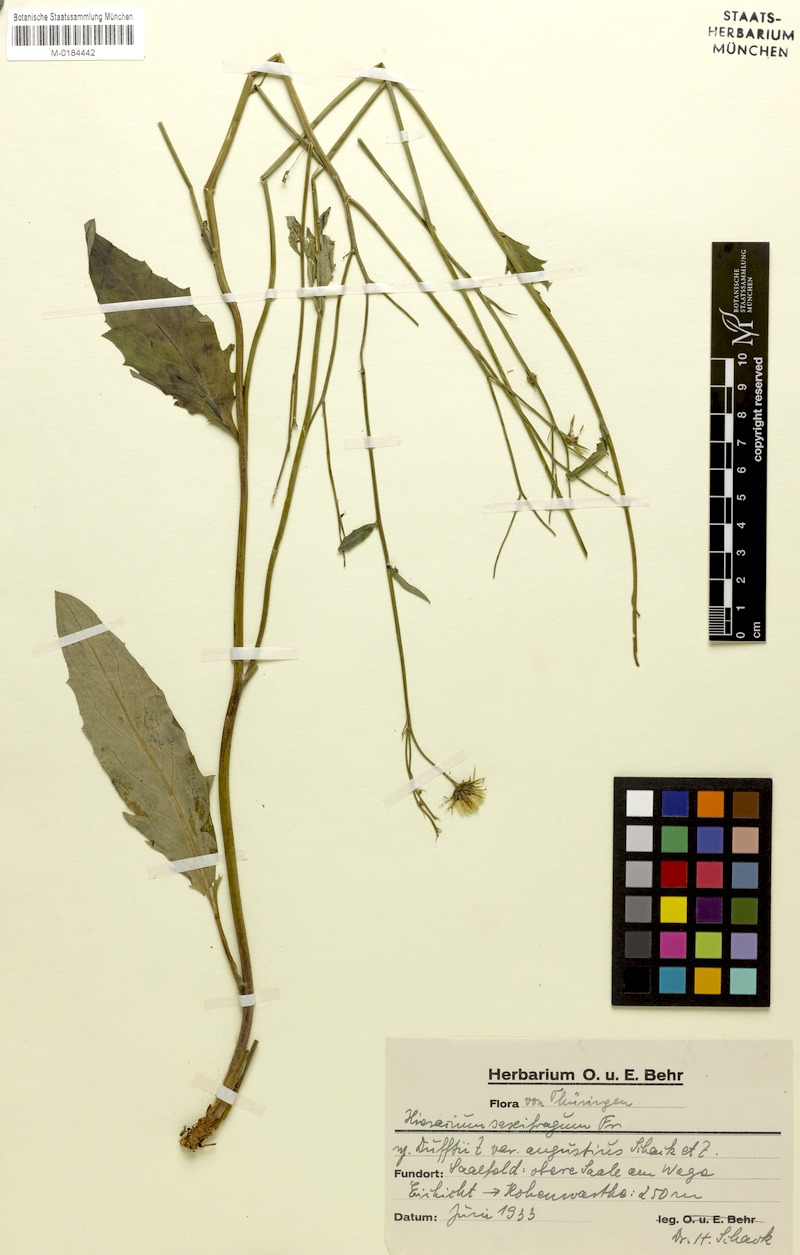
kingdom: Plantae
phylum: Tracheophyta
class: Magnoliopsida
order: Asterales
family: Asteraceae
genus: Hieracium
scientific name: Hieracium saxifragum
